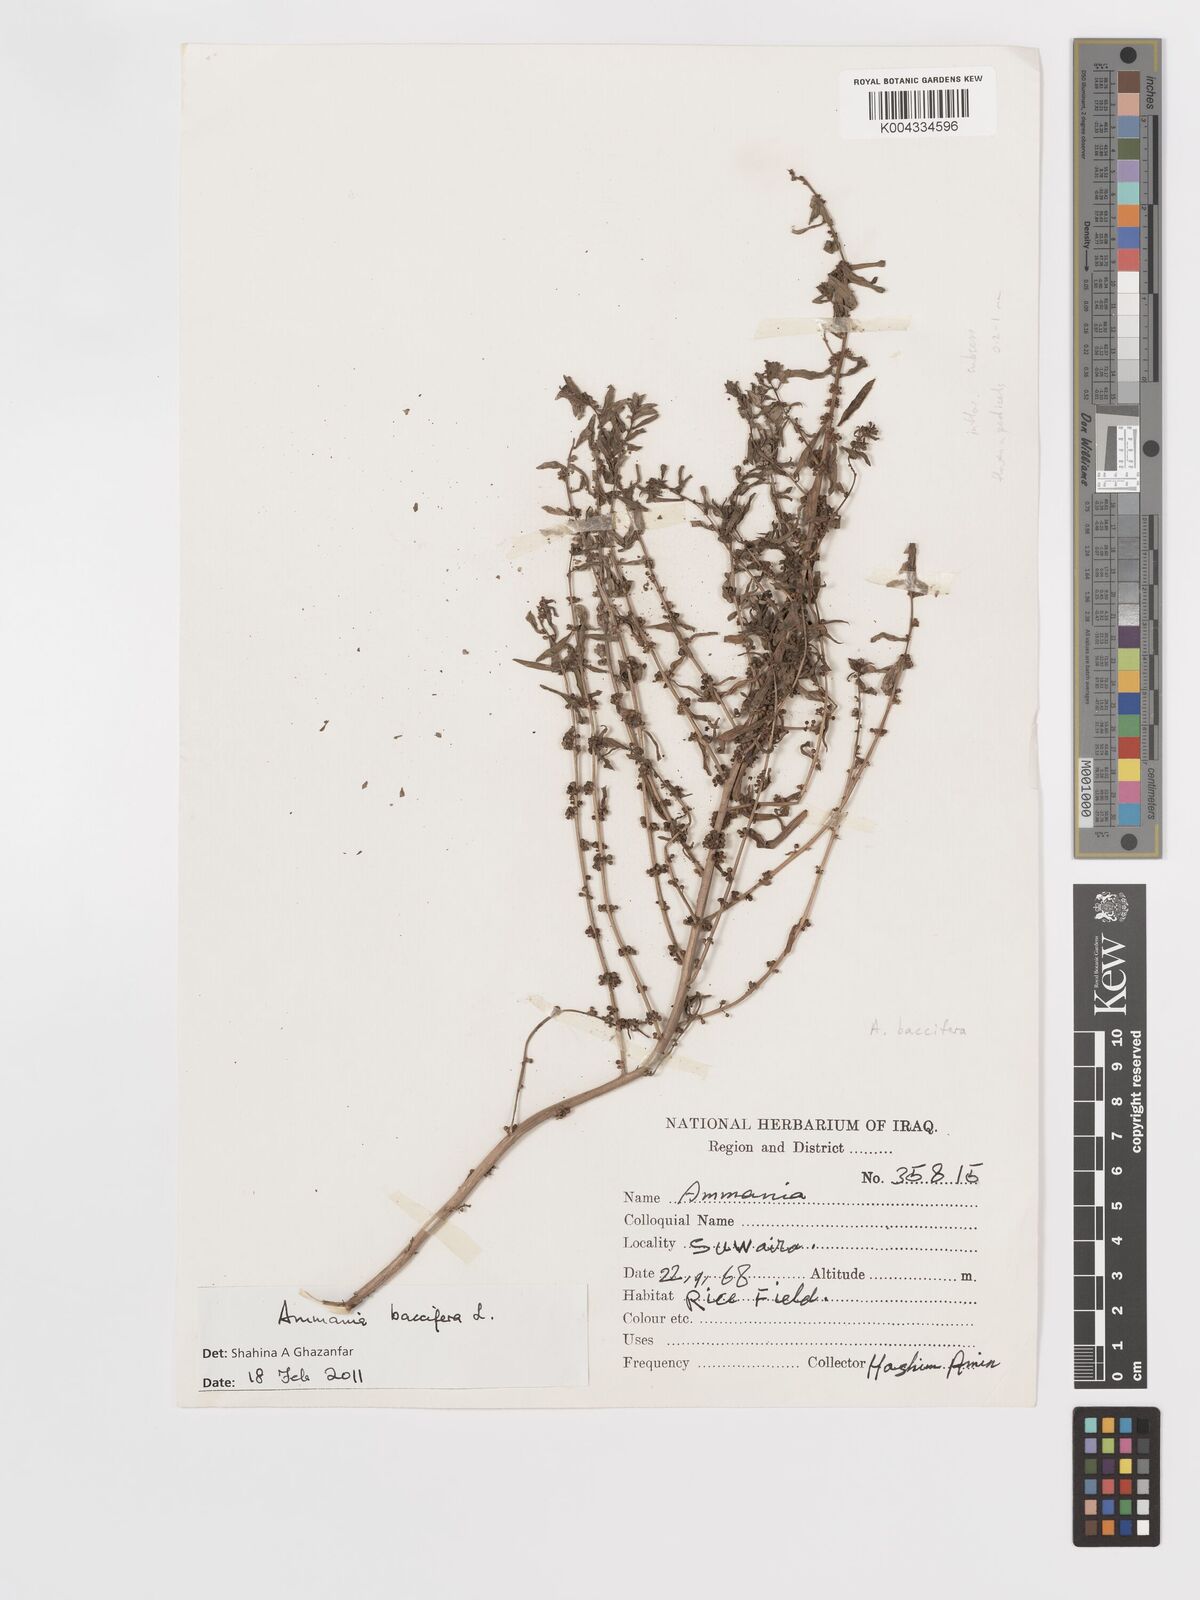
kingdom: Plantae
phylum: Tracheophyta
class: Magnoliopsida
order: Myrtales
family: Lythraceae
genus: Ammannia
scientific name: Ammannia baccifera
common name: Blistering ammania
